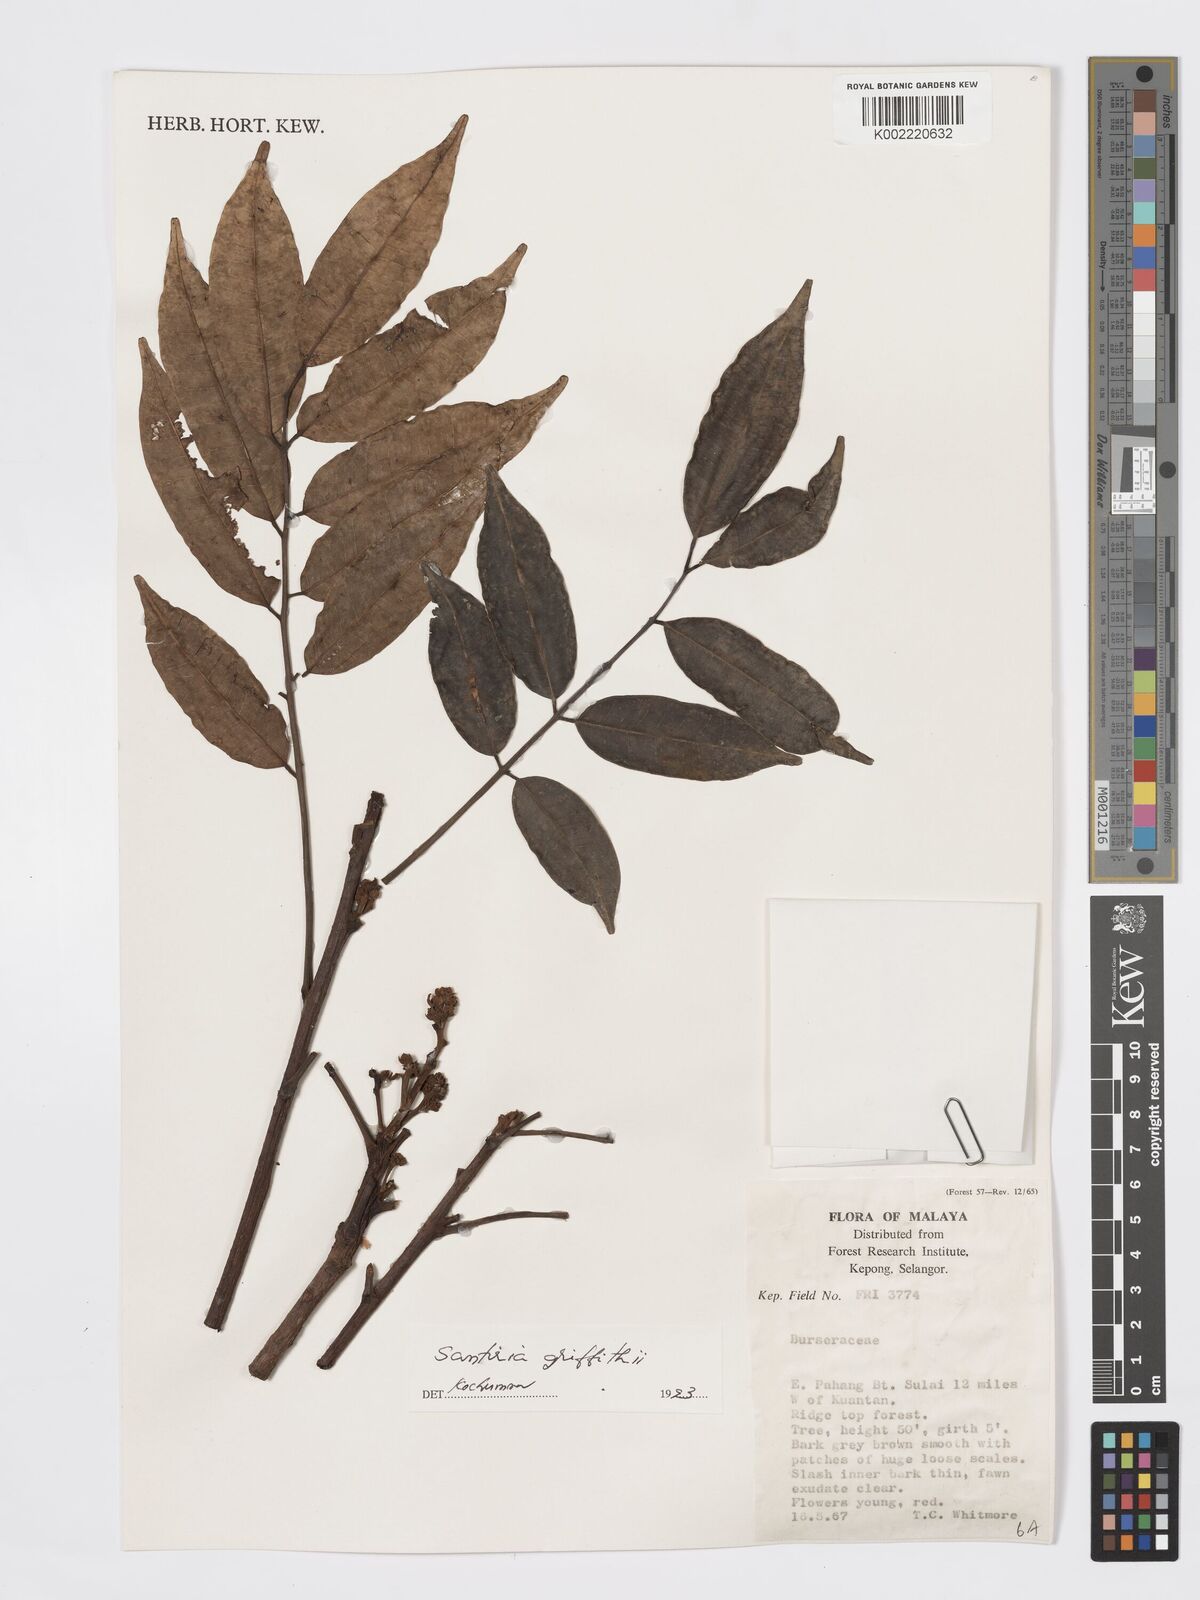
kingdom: Plantae
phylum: Tracheophyta
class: Magnoliopsida
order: Sapindales
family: Burseraceae
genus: Santiria
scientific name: Santiria griffithii
